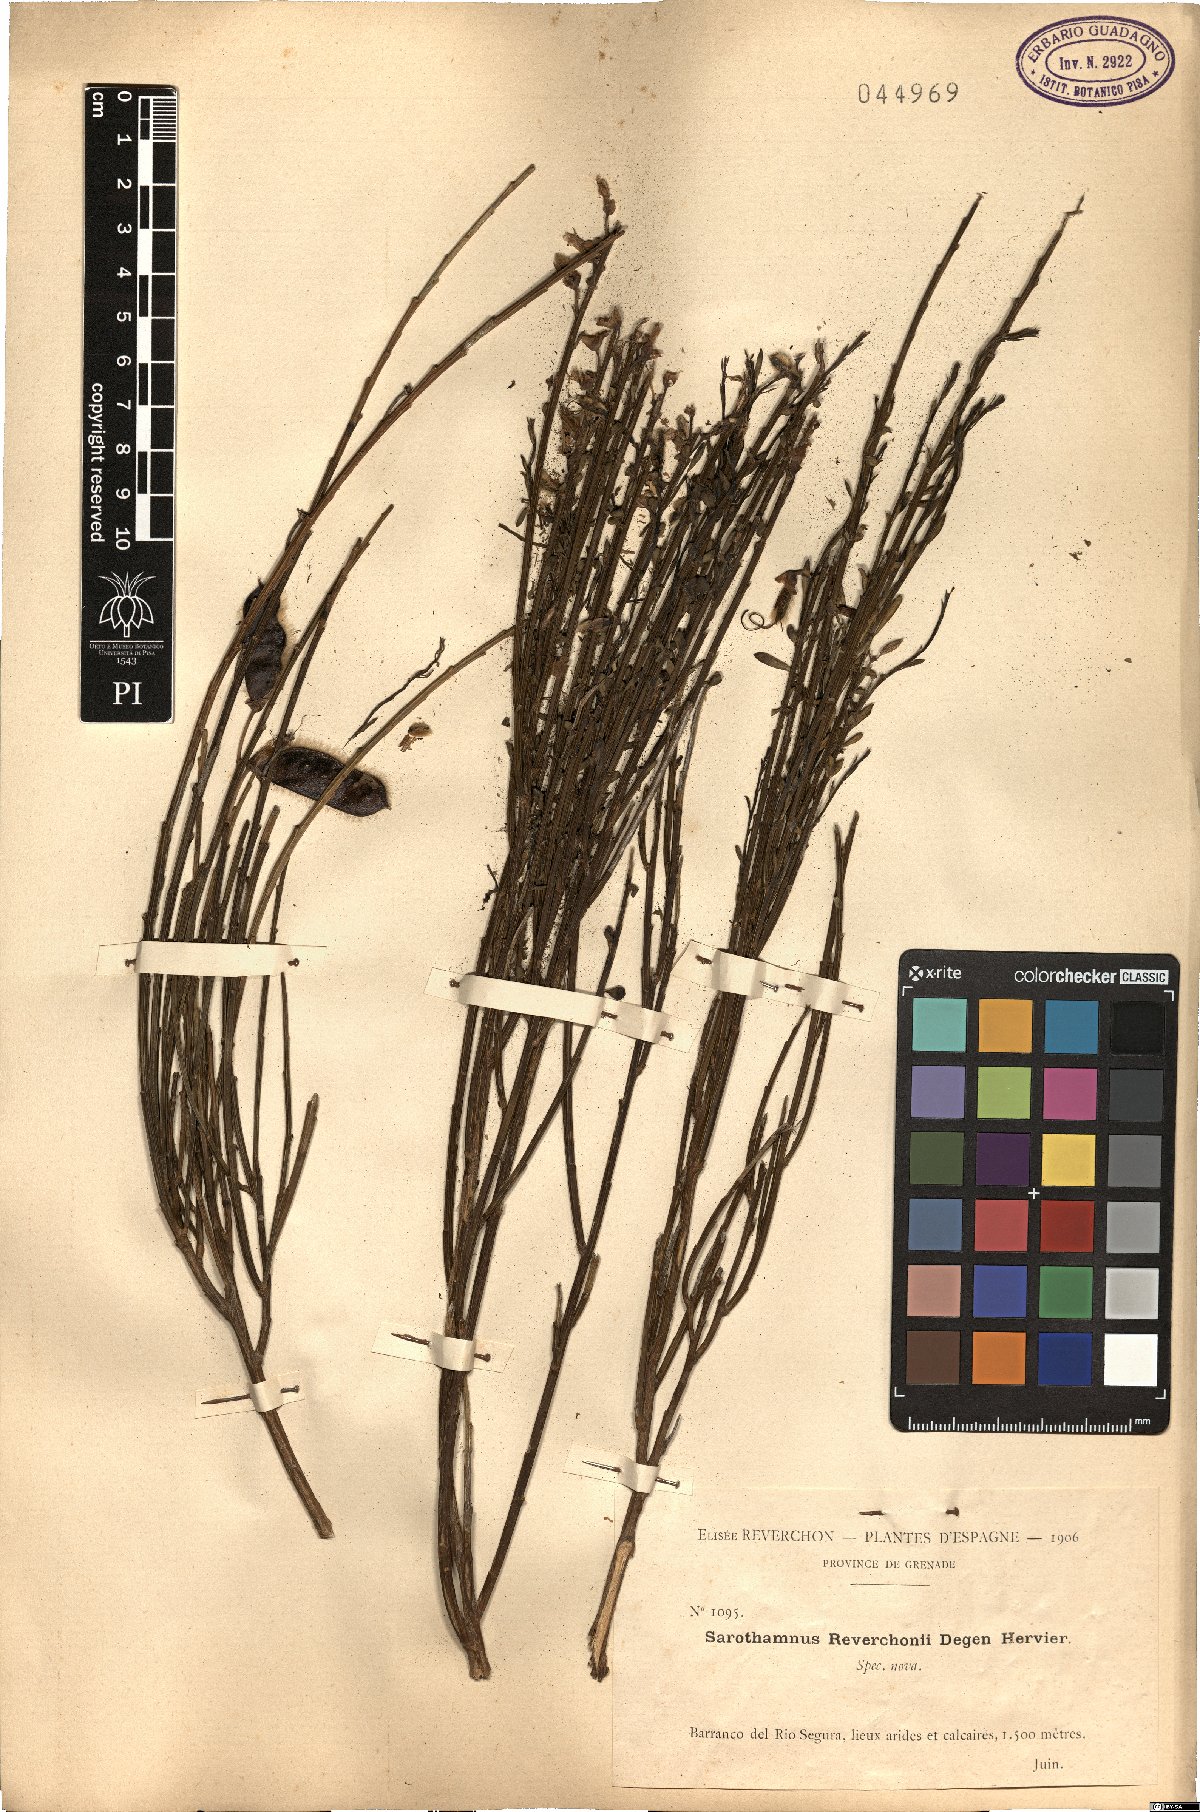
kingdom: Plantae
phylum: Tracheophyta
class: Magnoliopsida
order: Fabales
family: Fabaceae
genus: Cytisus
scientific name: Cytisus scoparius
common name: Scotch broom
